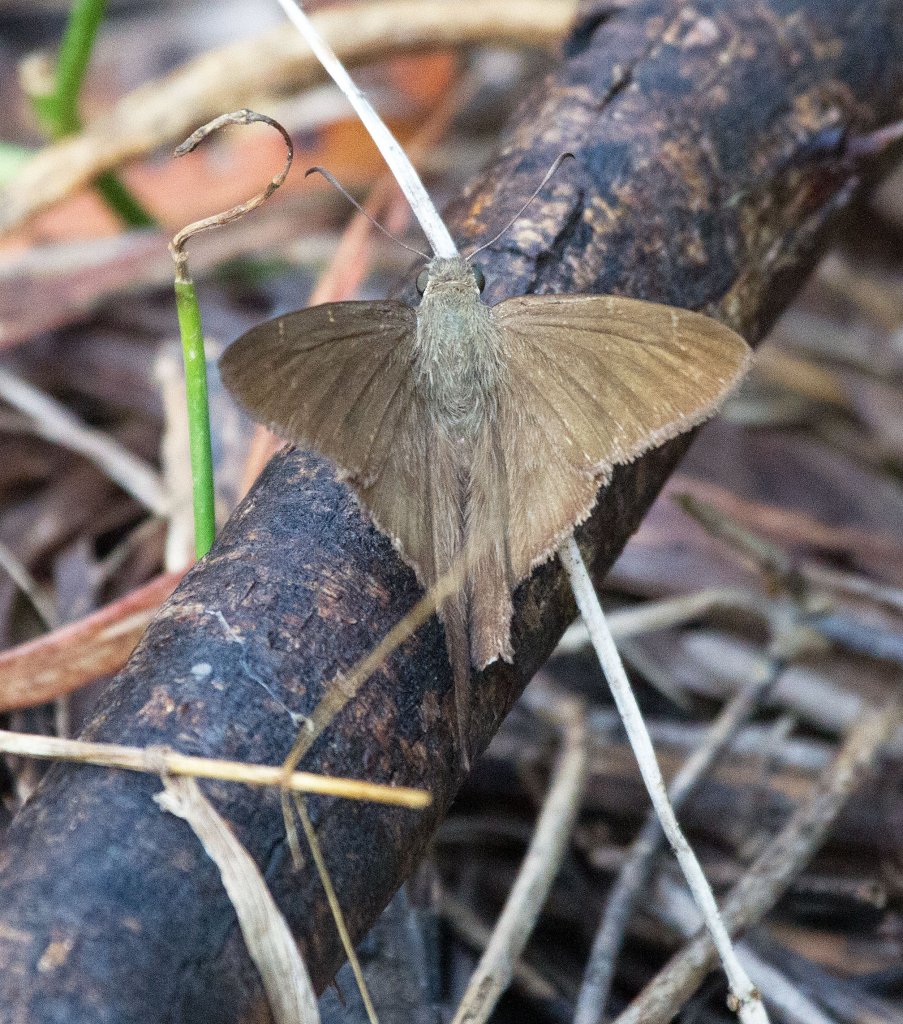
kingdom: Animalia
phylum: Arthropoda
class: Insecta
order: Lepidoptera
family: Hesperiidae
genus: Urbanus
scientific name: Urbanus procne
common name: Brown Longtail
